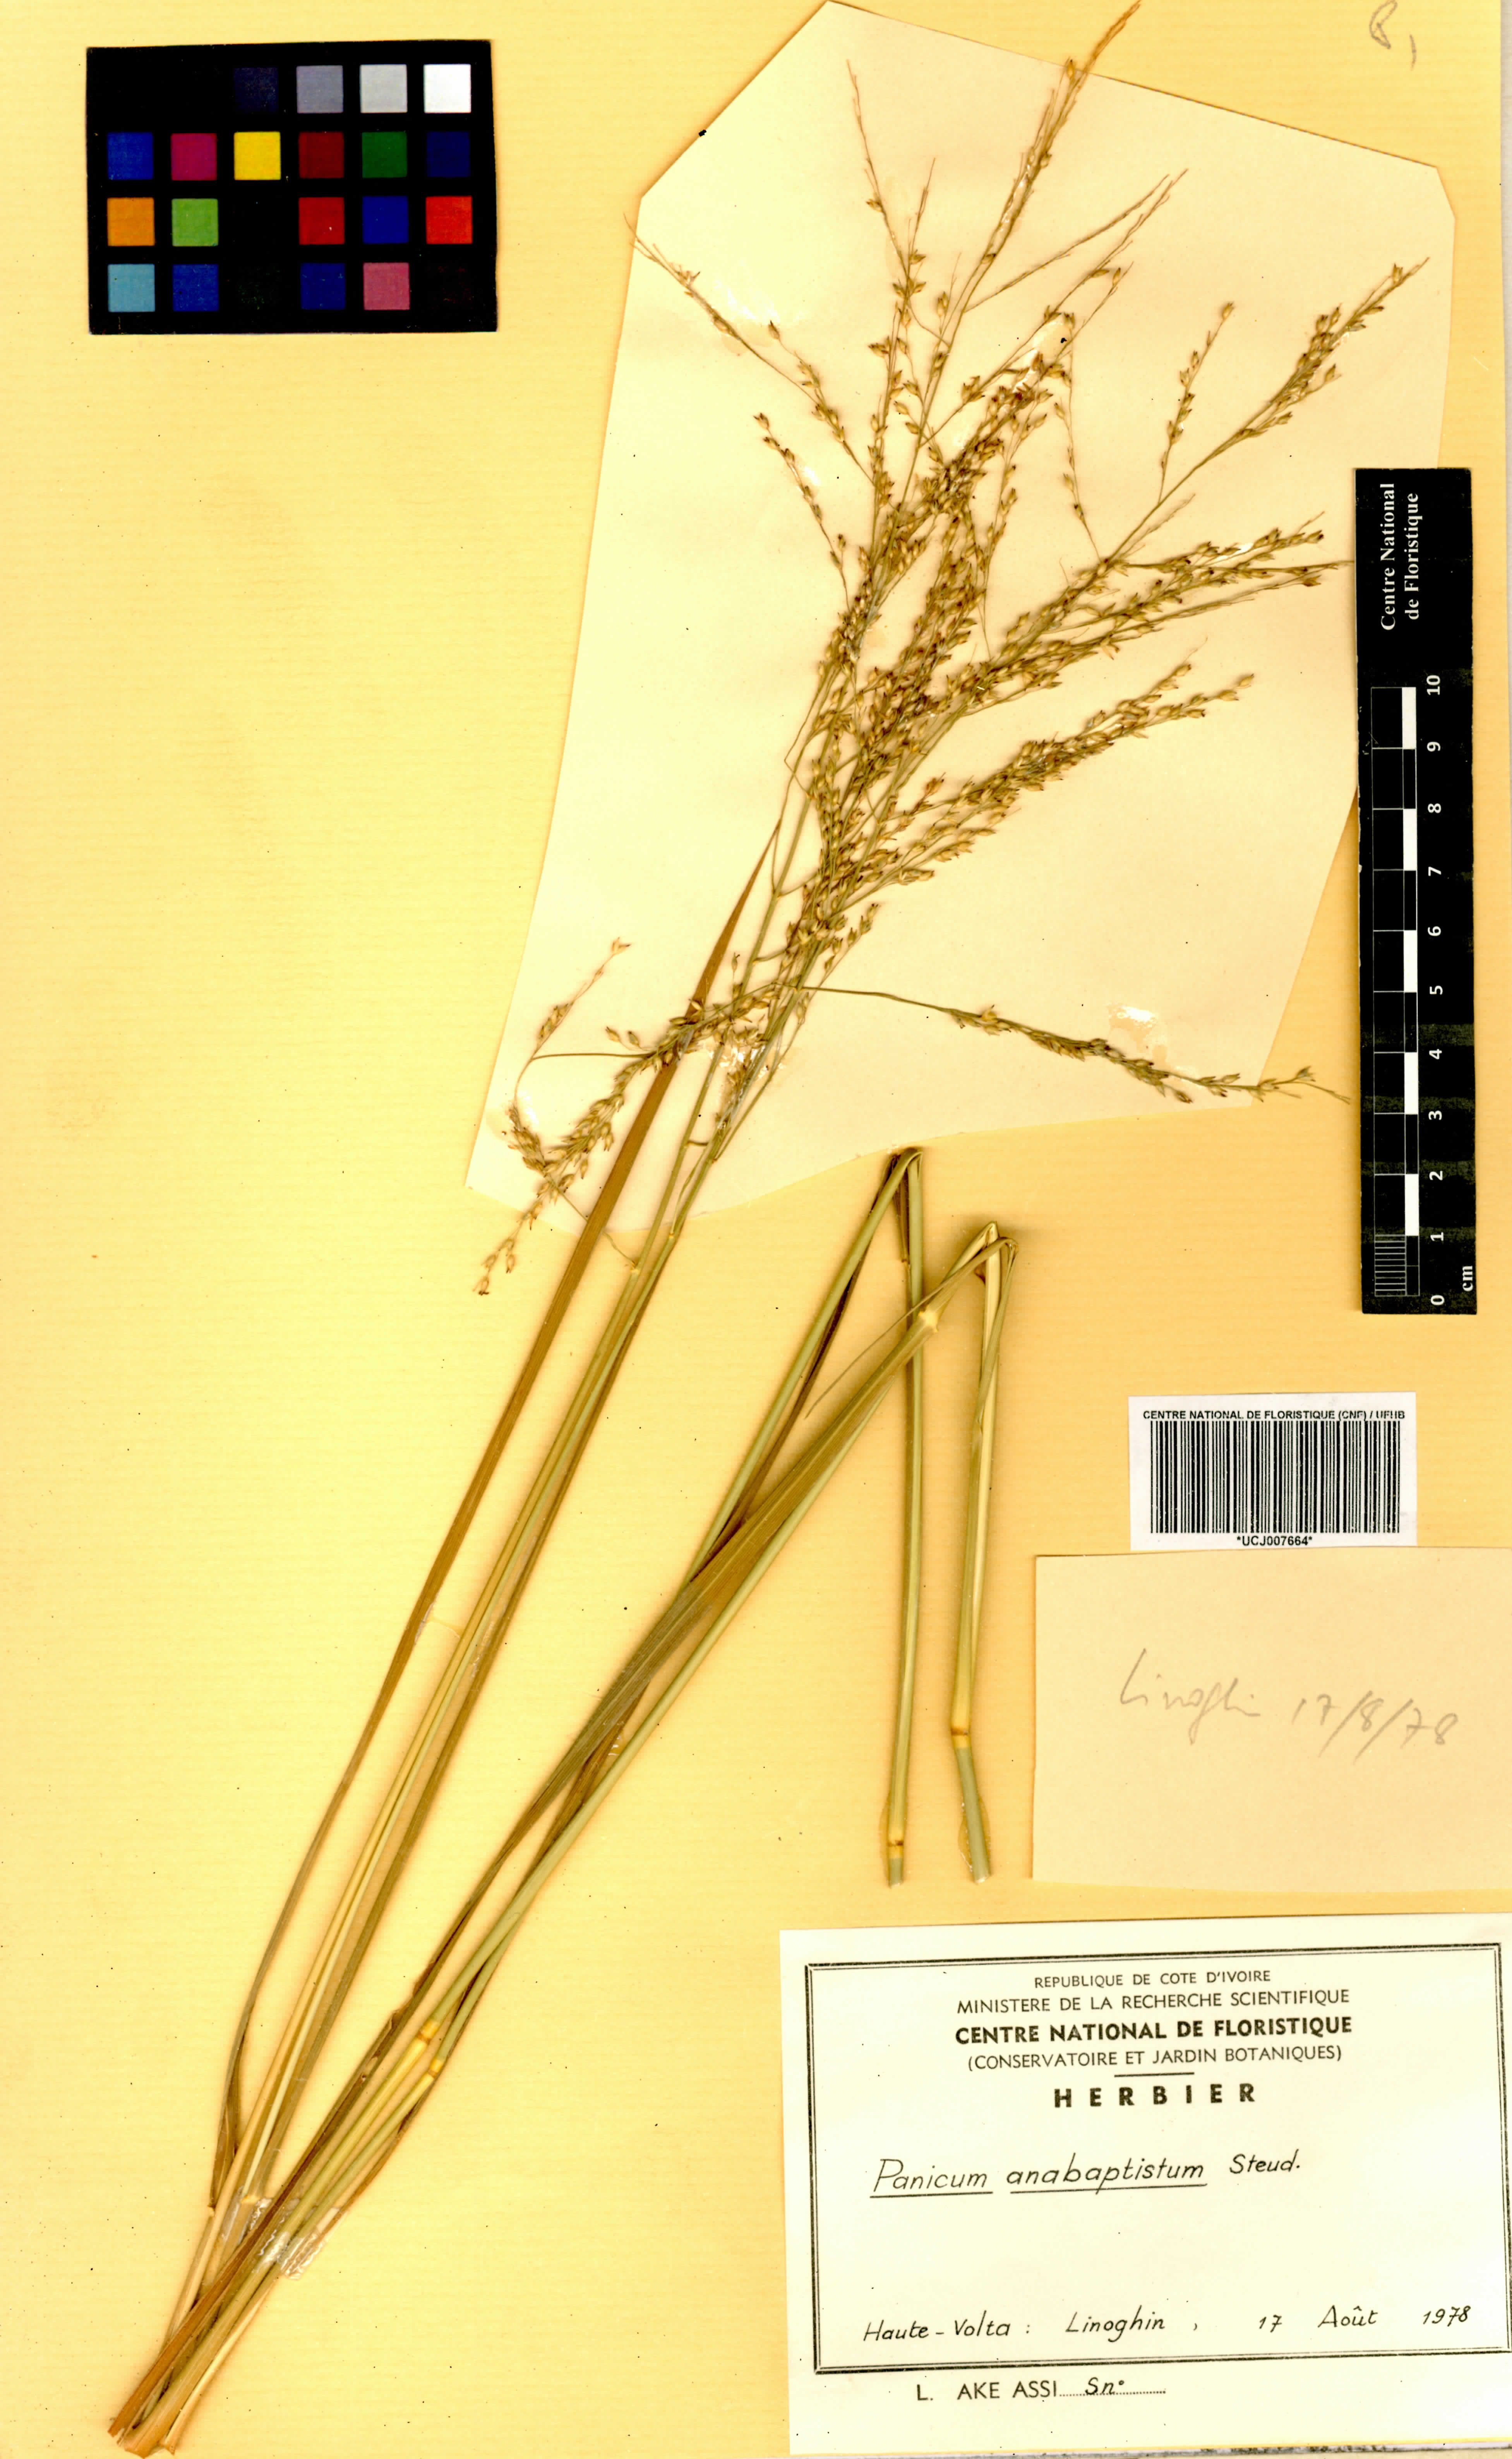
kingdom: Plantae
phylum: Tracheophyta
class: Liliopsida
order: Poales
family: Poaceae
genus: Panicum
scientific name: Panicum anabaptistum
